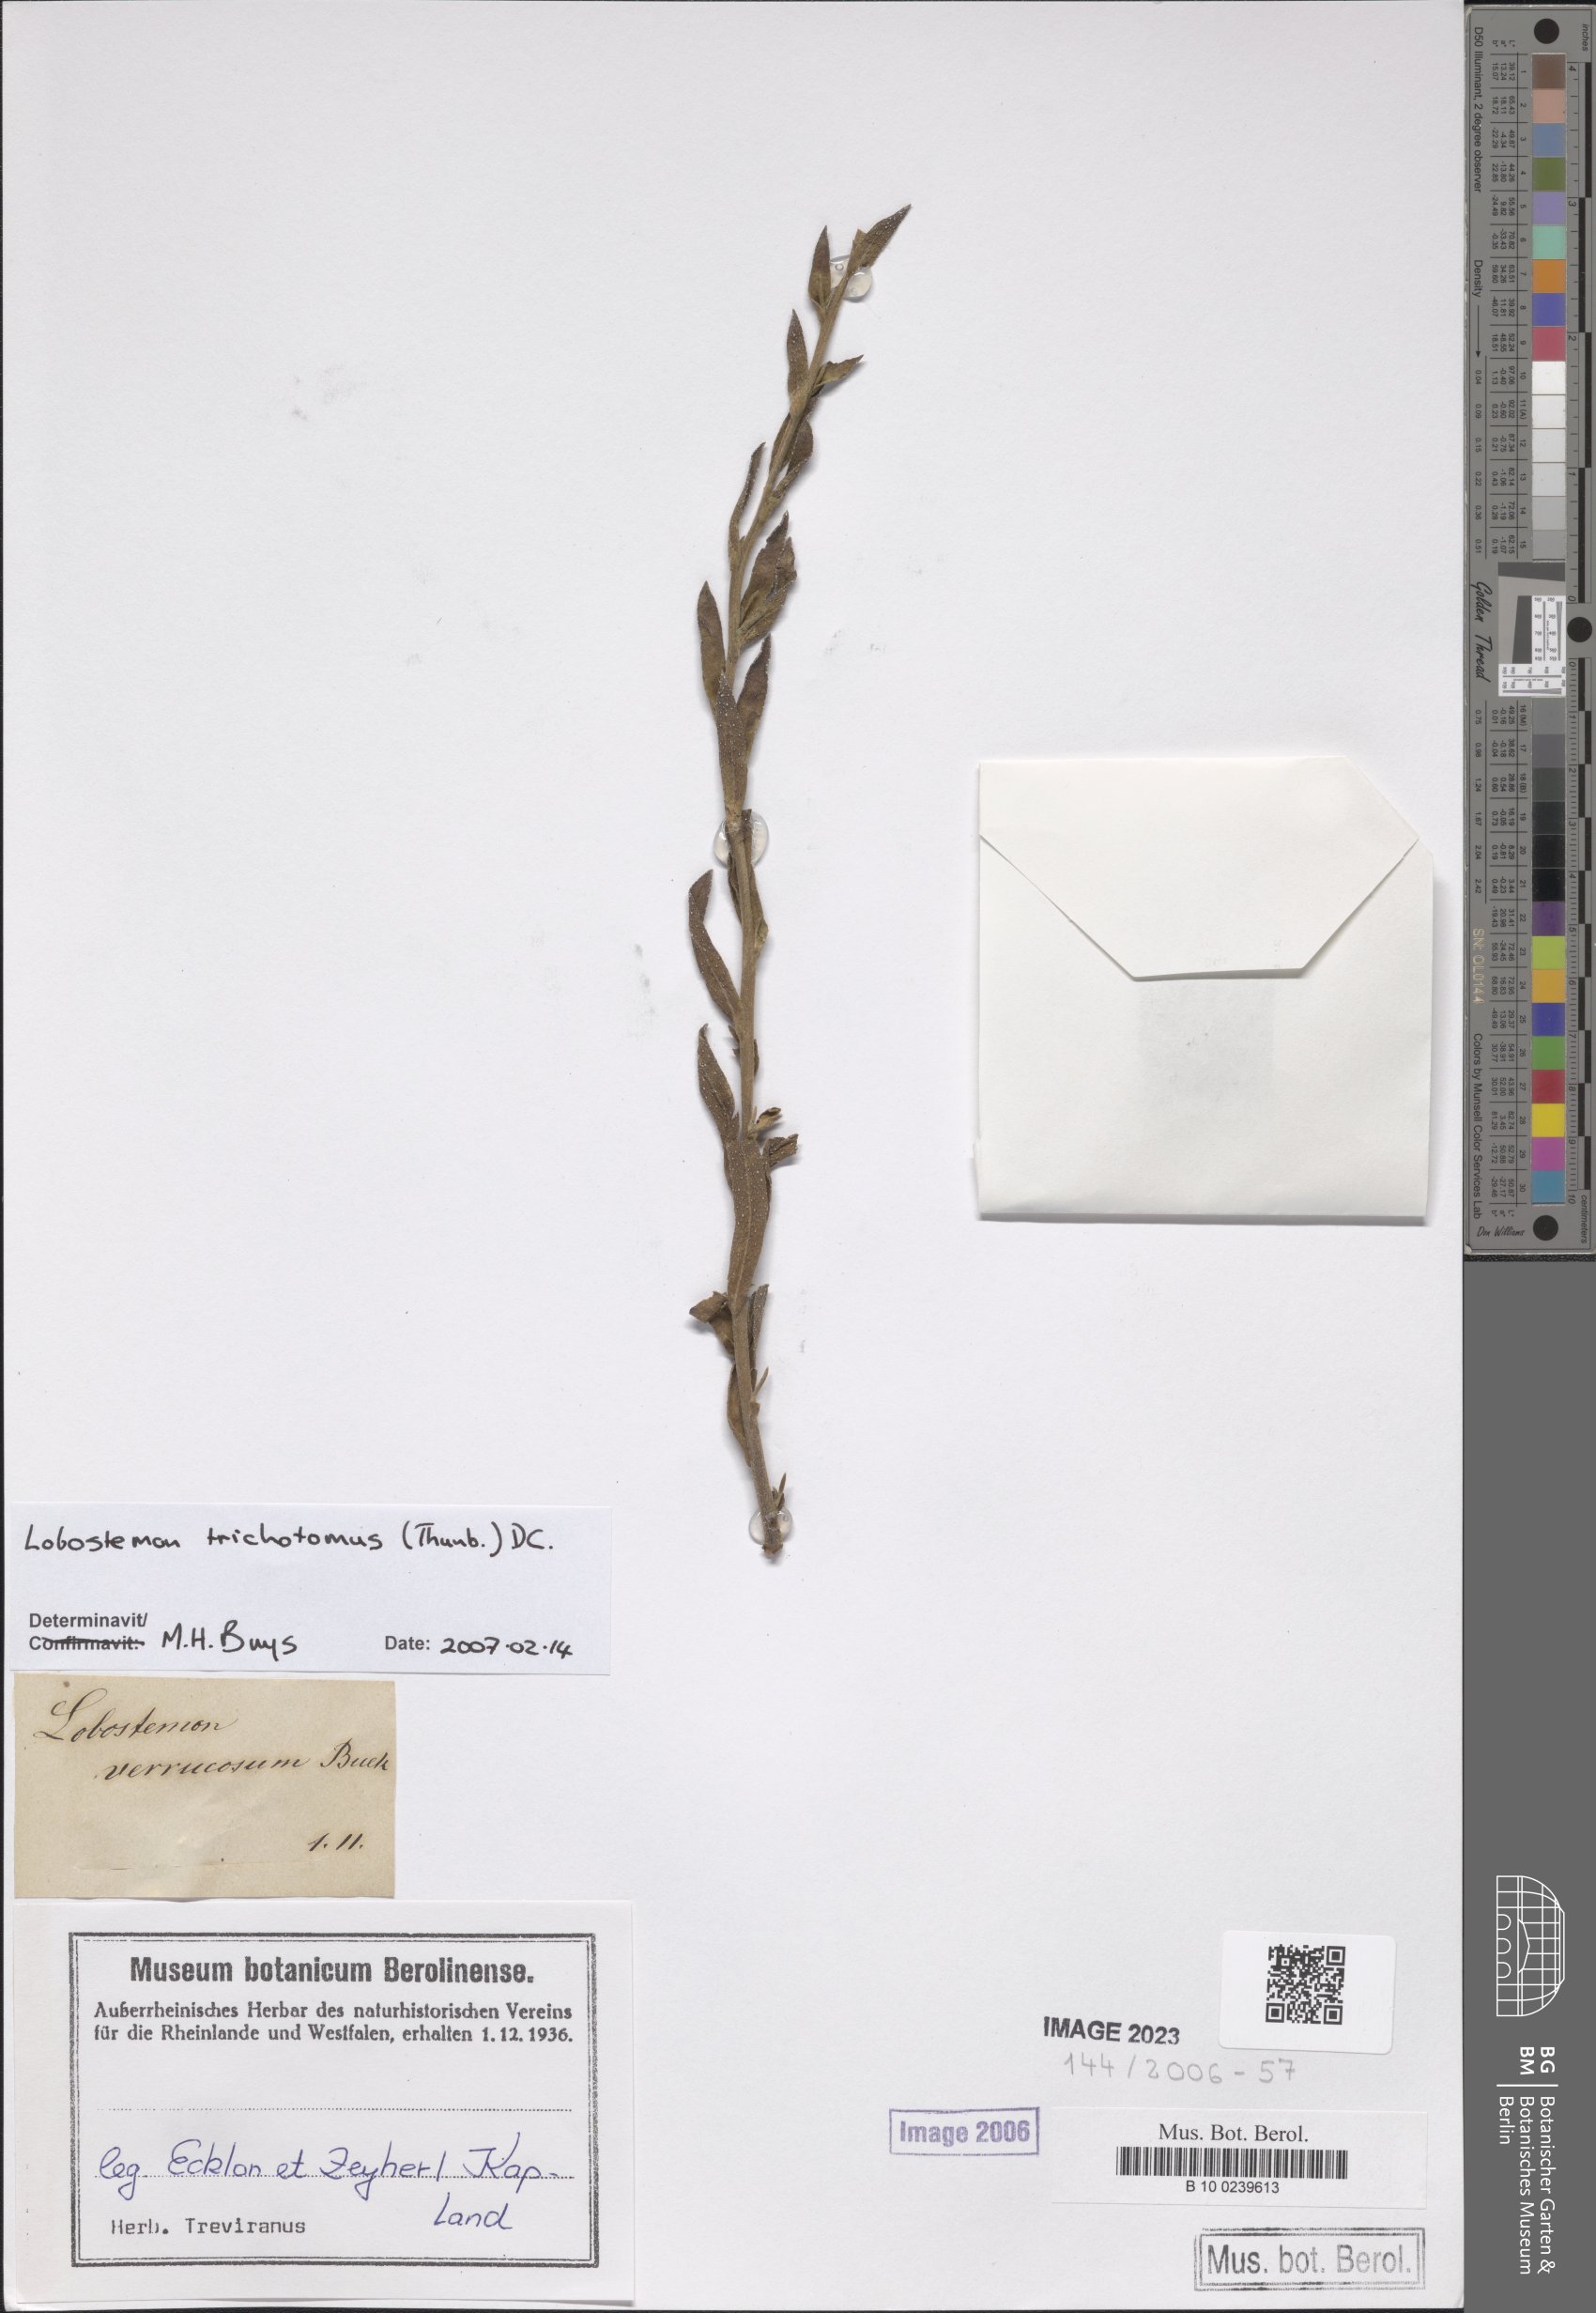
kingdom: Plantae
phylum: Tracheophyta
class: Magnoliopsida
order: Boraginales
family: Boraginaceae
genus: Lobostemon
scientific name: Lobostemon trichotomus
